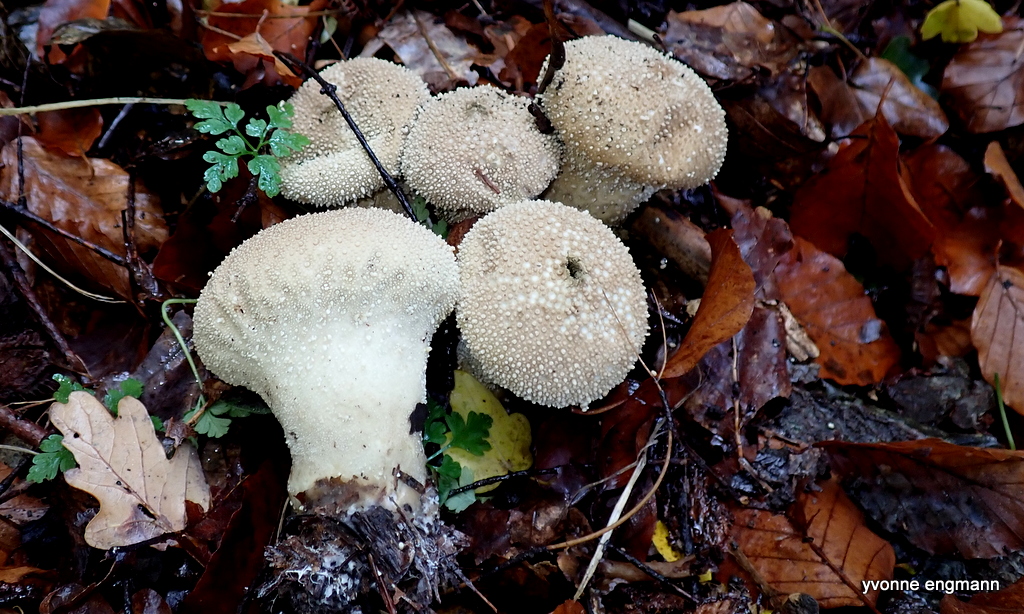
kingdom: Fungi
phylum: Basidiomycota
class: Agaricomycetes
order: Agaricales
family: Lycoperdaceae
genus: Lycoperdon
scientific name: Lycoperdon perlatum
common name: krystal-støvbold
